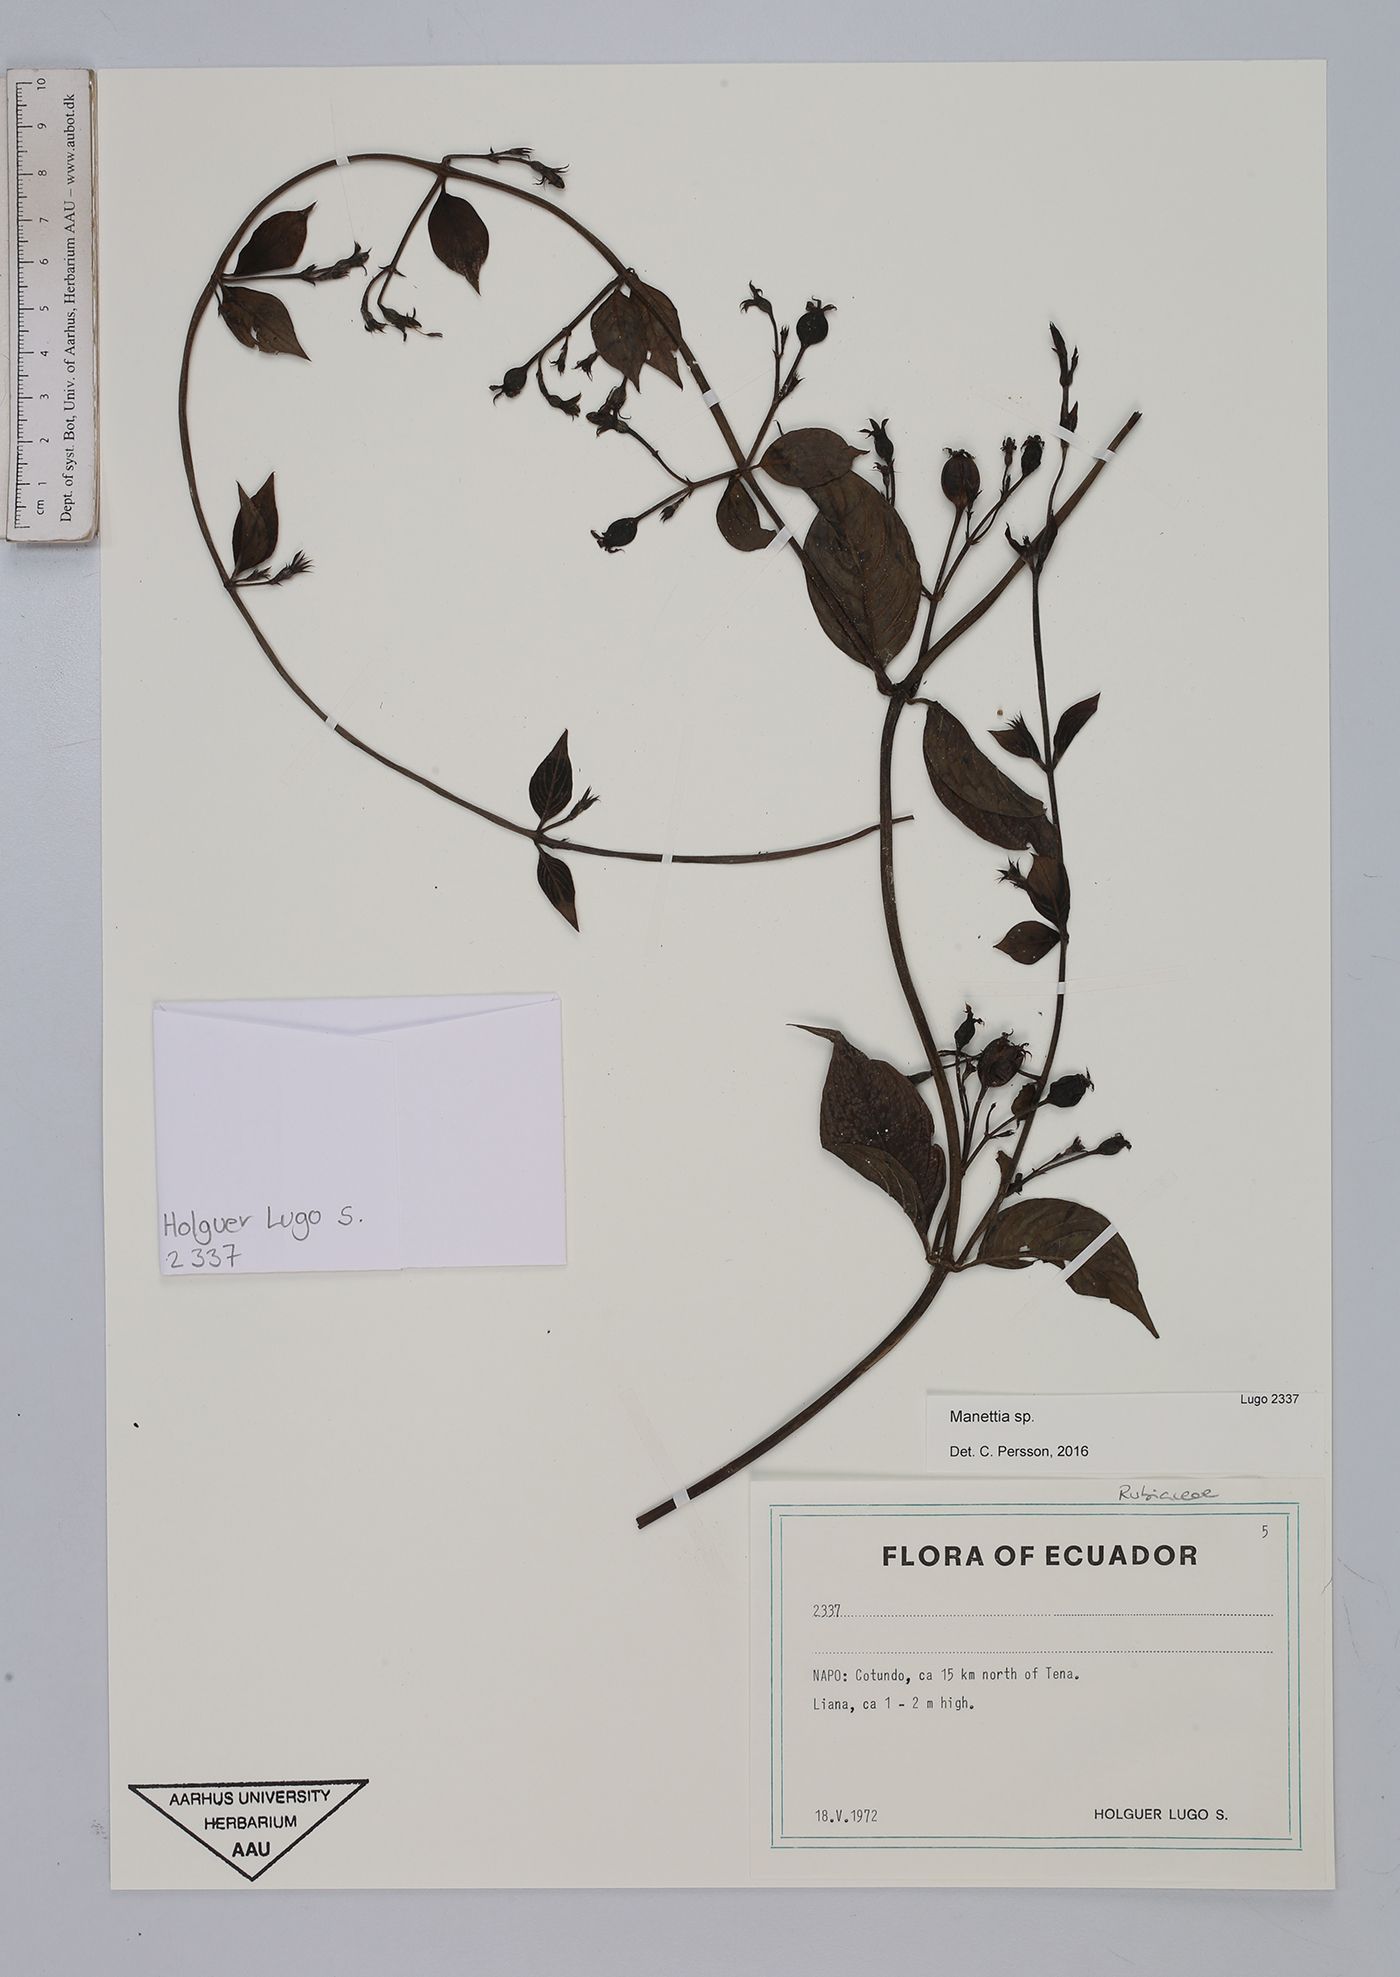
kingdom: Plantae
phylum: Tracheophyta
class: Magnoliopsida
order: Gentianales
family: Rubiaceae
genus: Manettia
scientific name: Manettia
